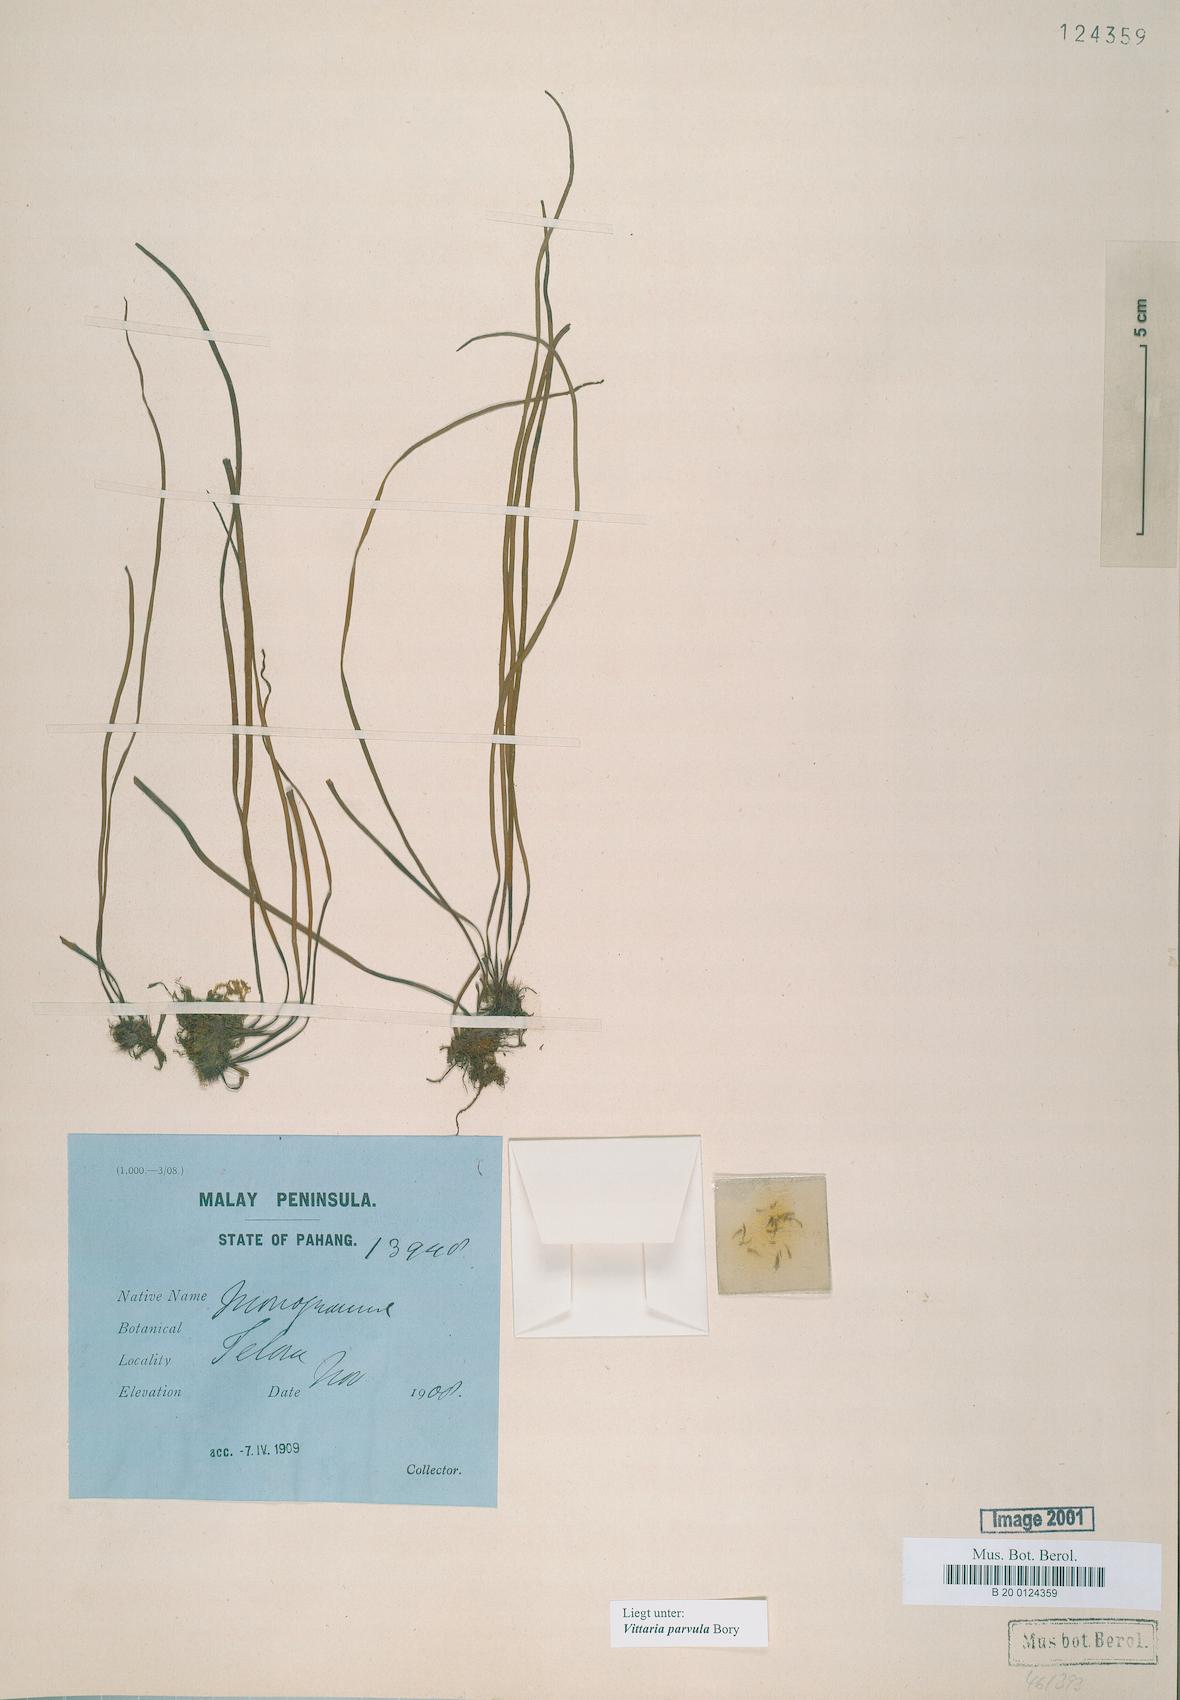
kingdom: Plantae
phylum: Tracheophyta
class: Polypodiopsida
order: Polypodiales
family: Pteridaceae
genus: Haplopteris
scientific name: Haplopteris elongata
